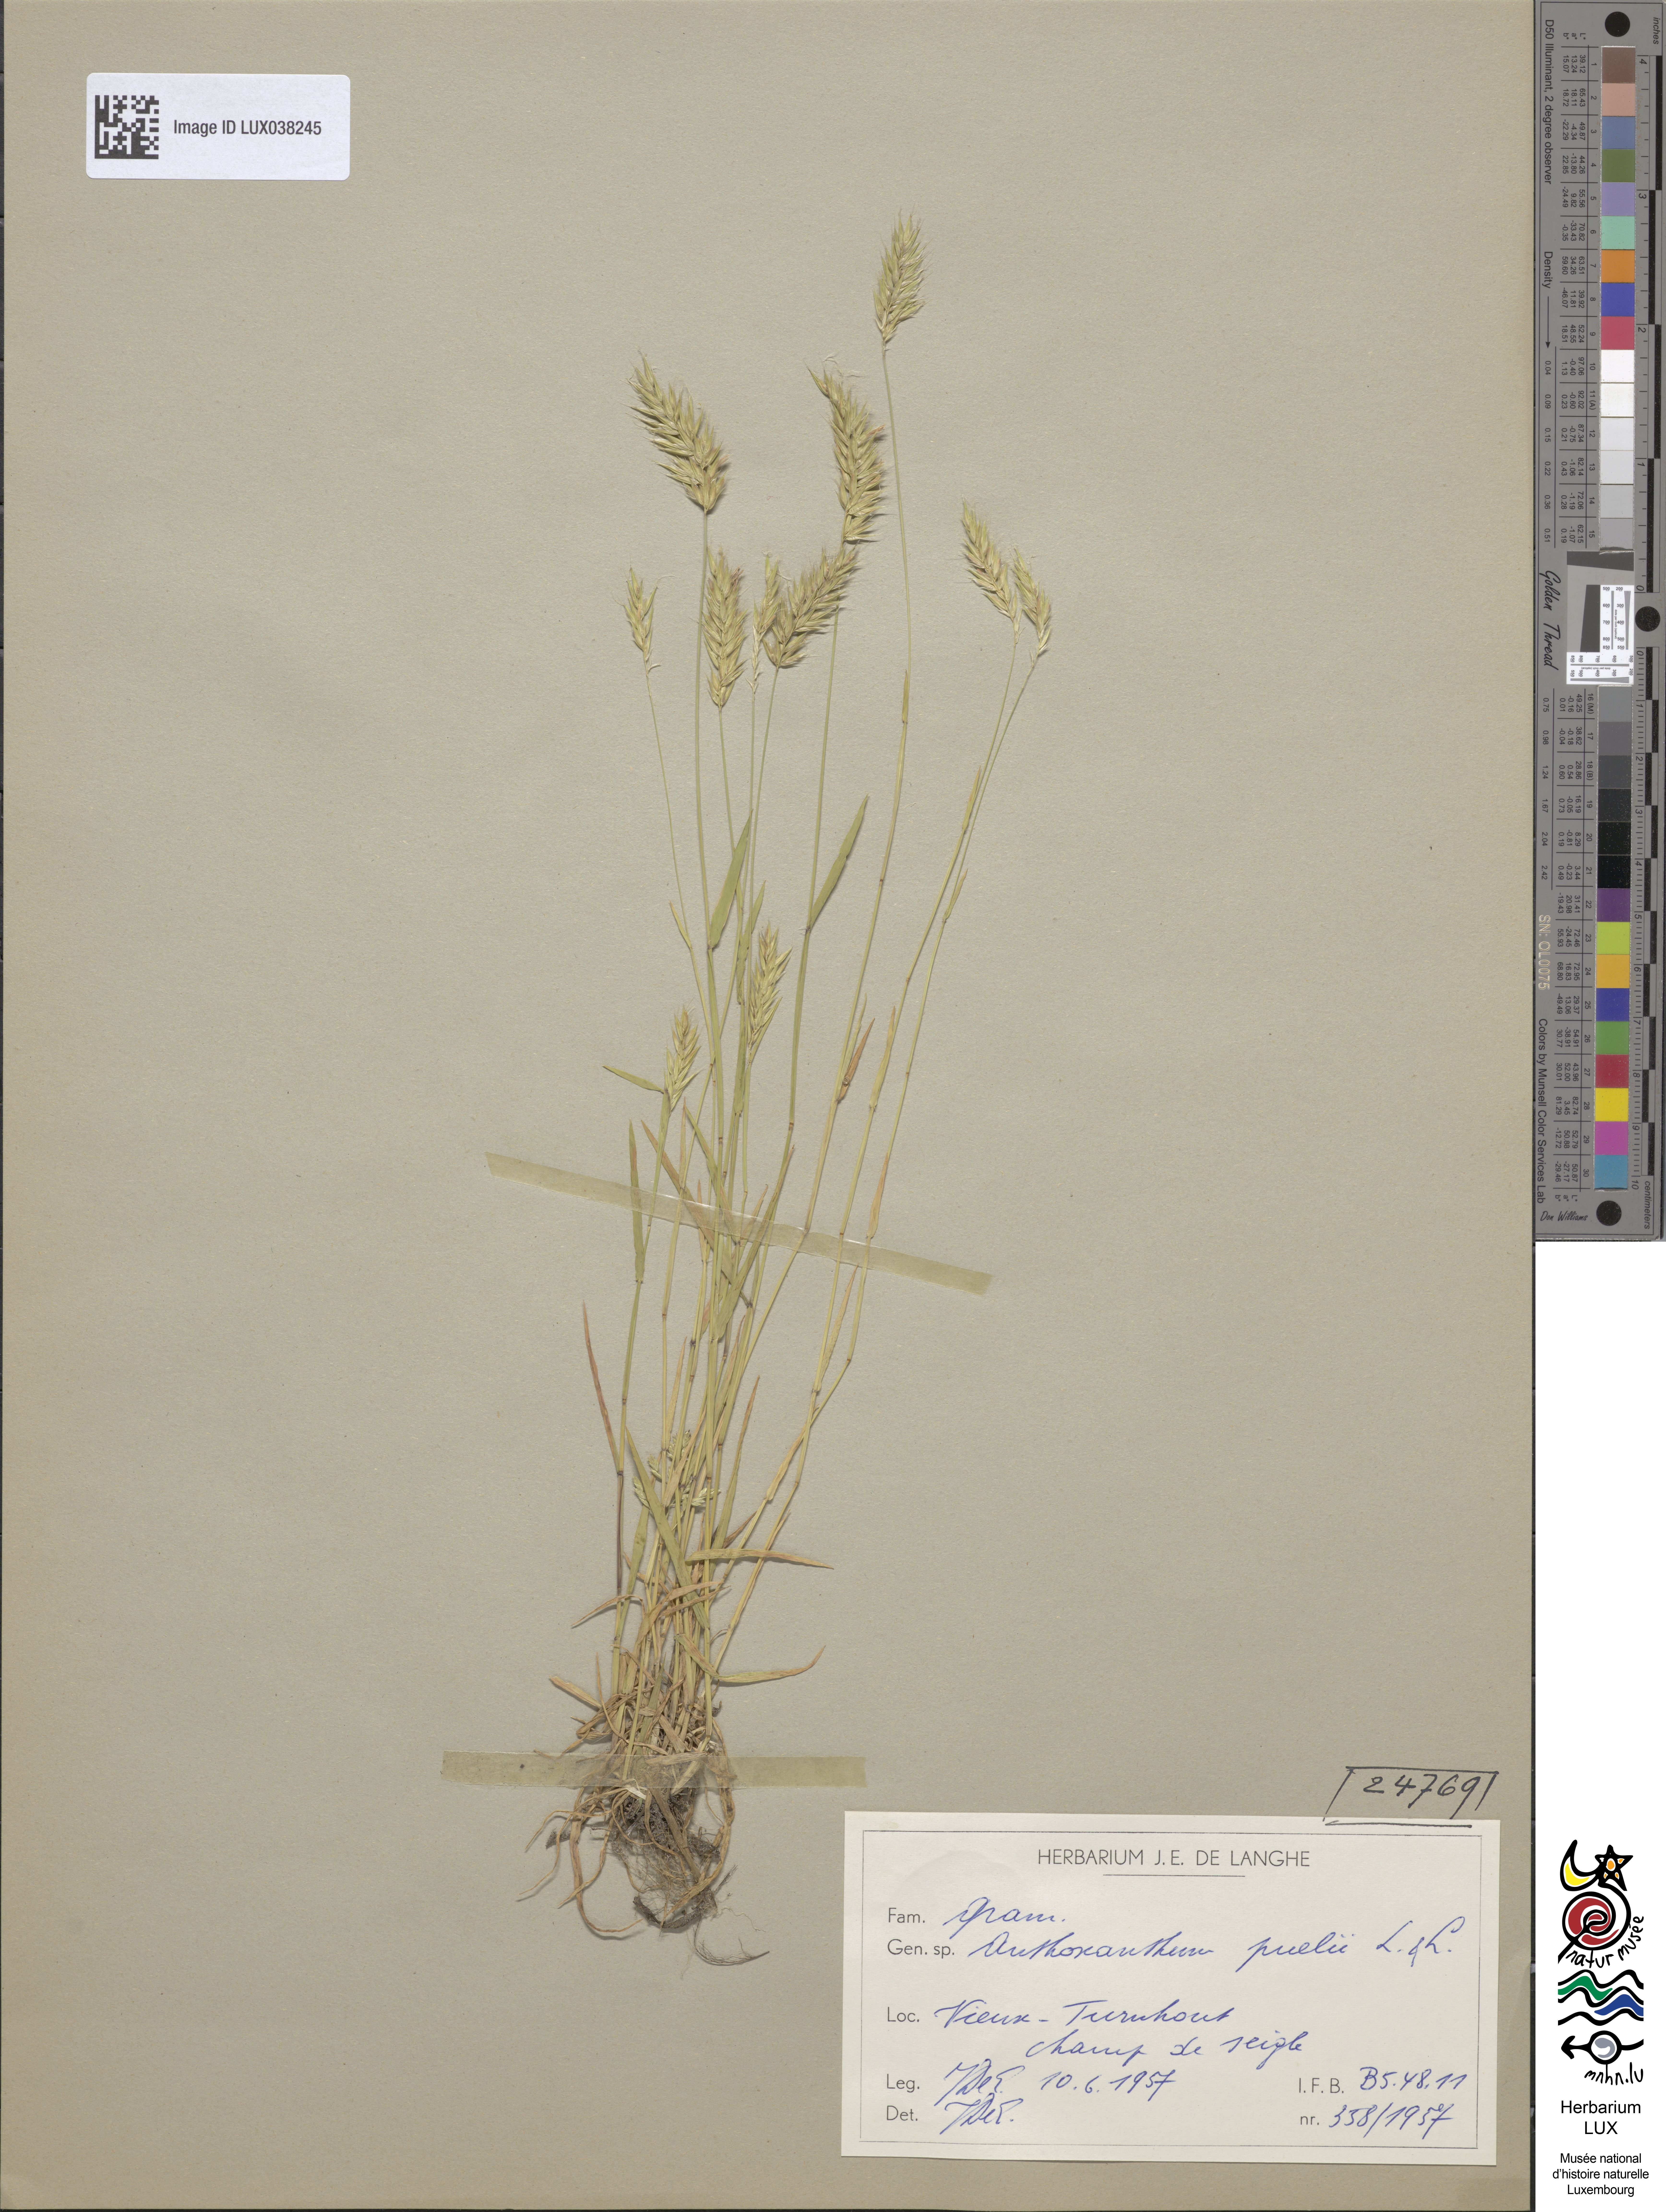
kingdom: Plantae
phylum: Tracheophyta
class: Liliopsida
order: Poales
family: Poaceae
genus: Anthoxanthum
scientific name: Anthoxanthum aristatum
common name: Annual vernal-grass
